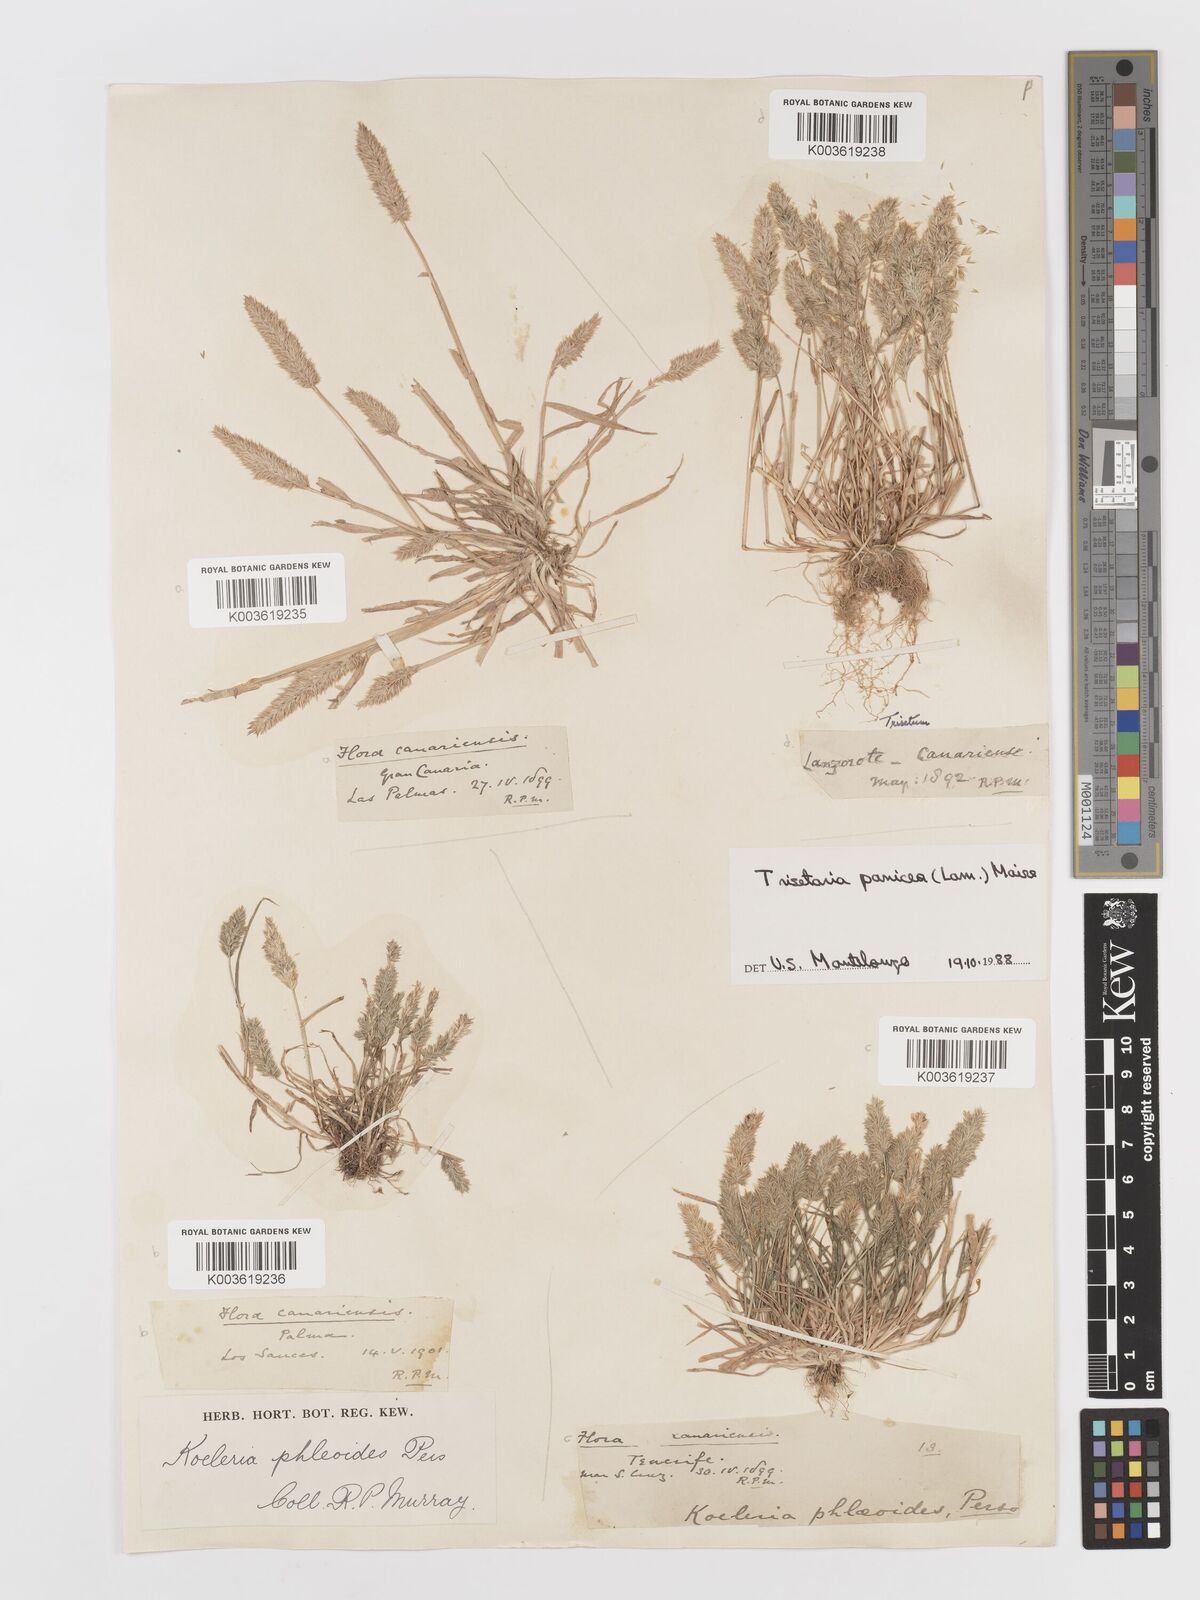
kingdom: Plantae
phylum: Tracheophyta
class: Liliopsida
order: Poales
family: Poaceae
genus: Rostraria
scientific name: Rostraria cristata
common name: Mediterranean hair-grass
